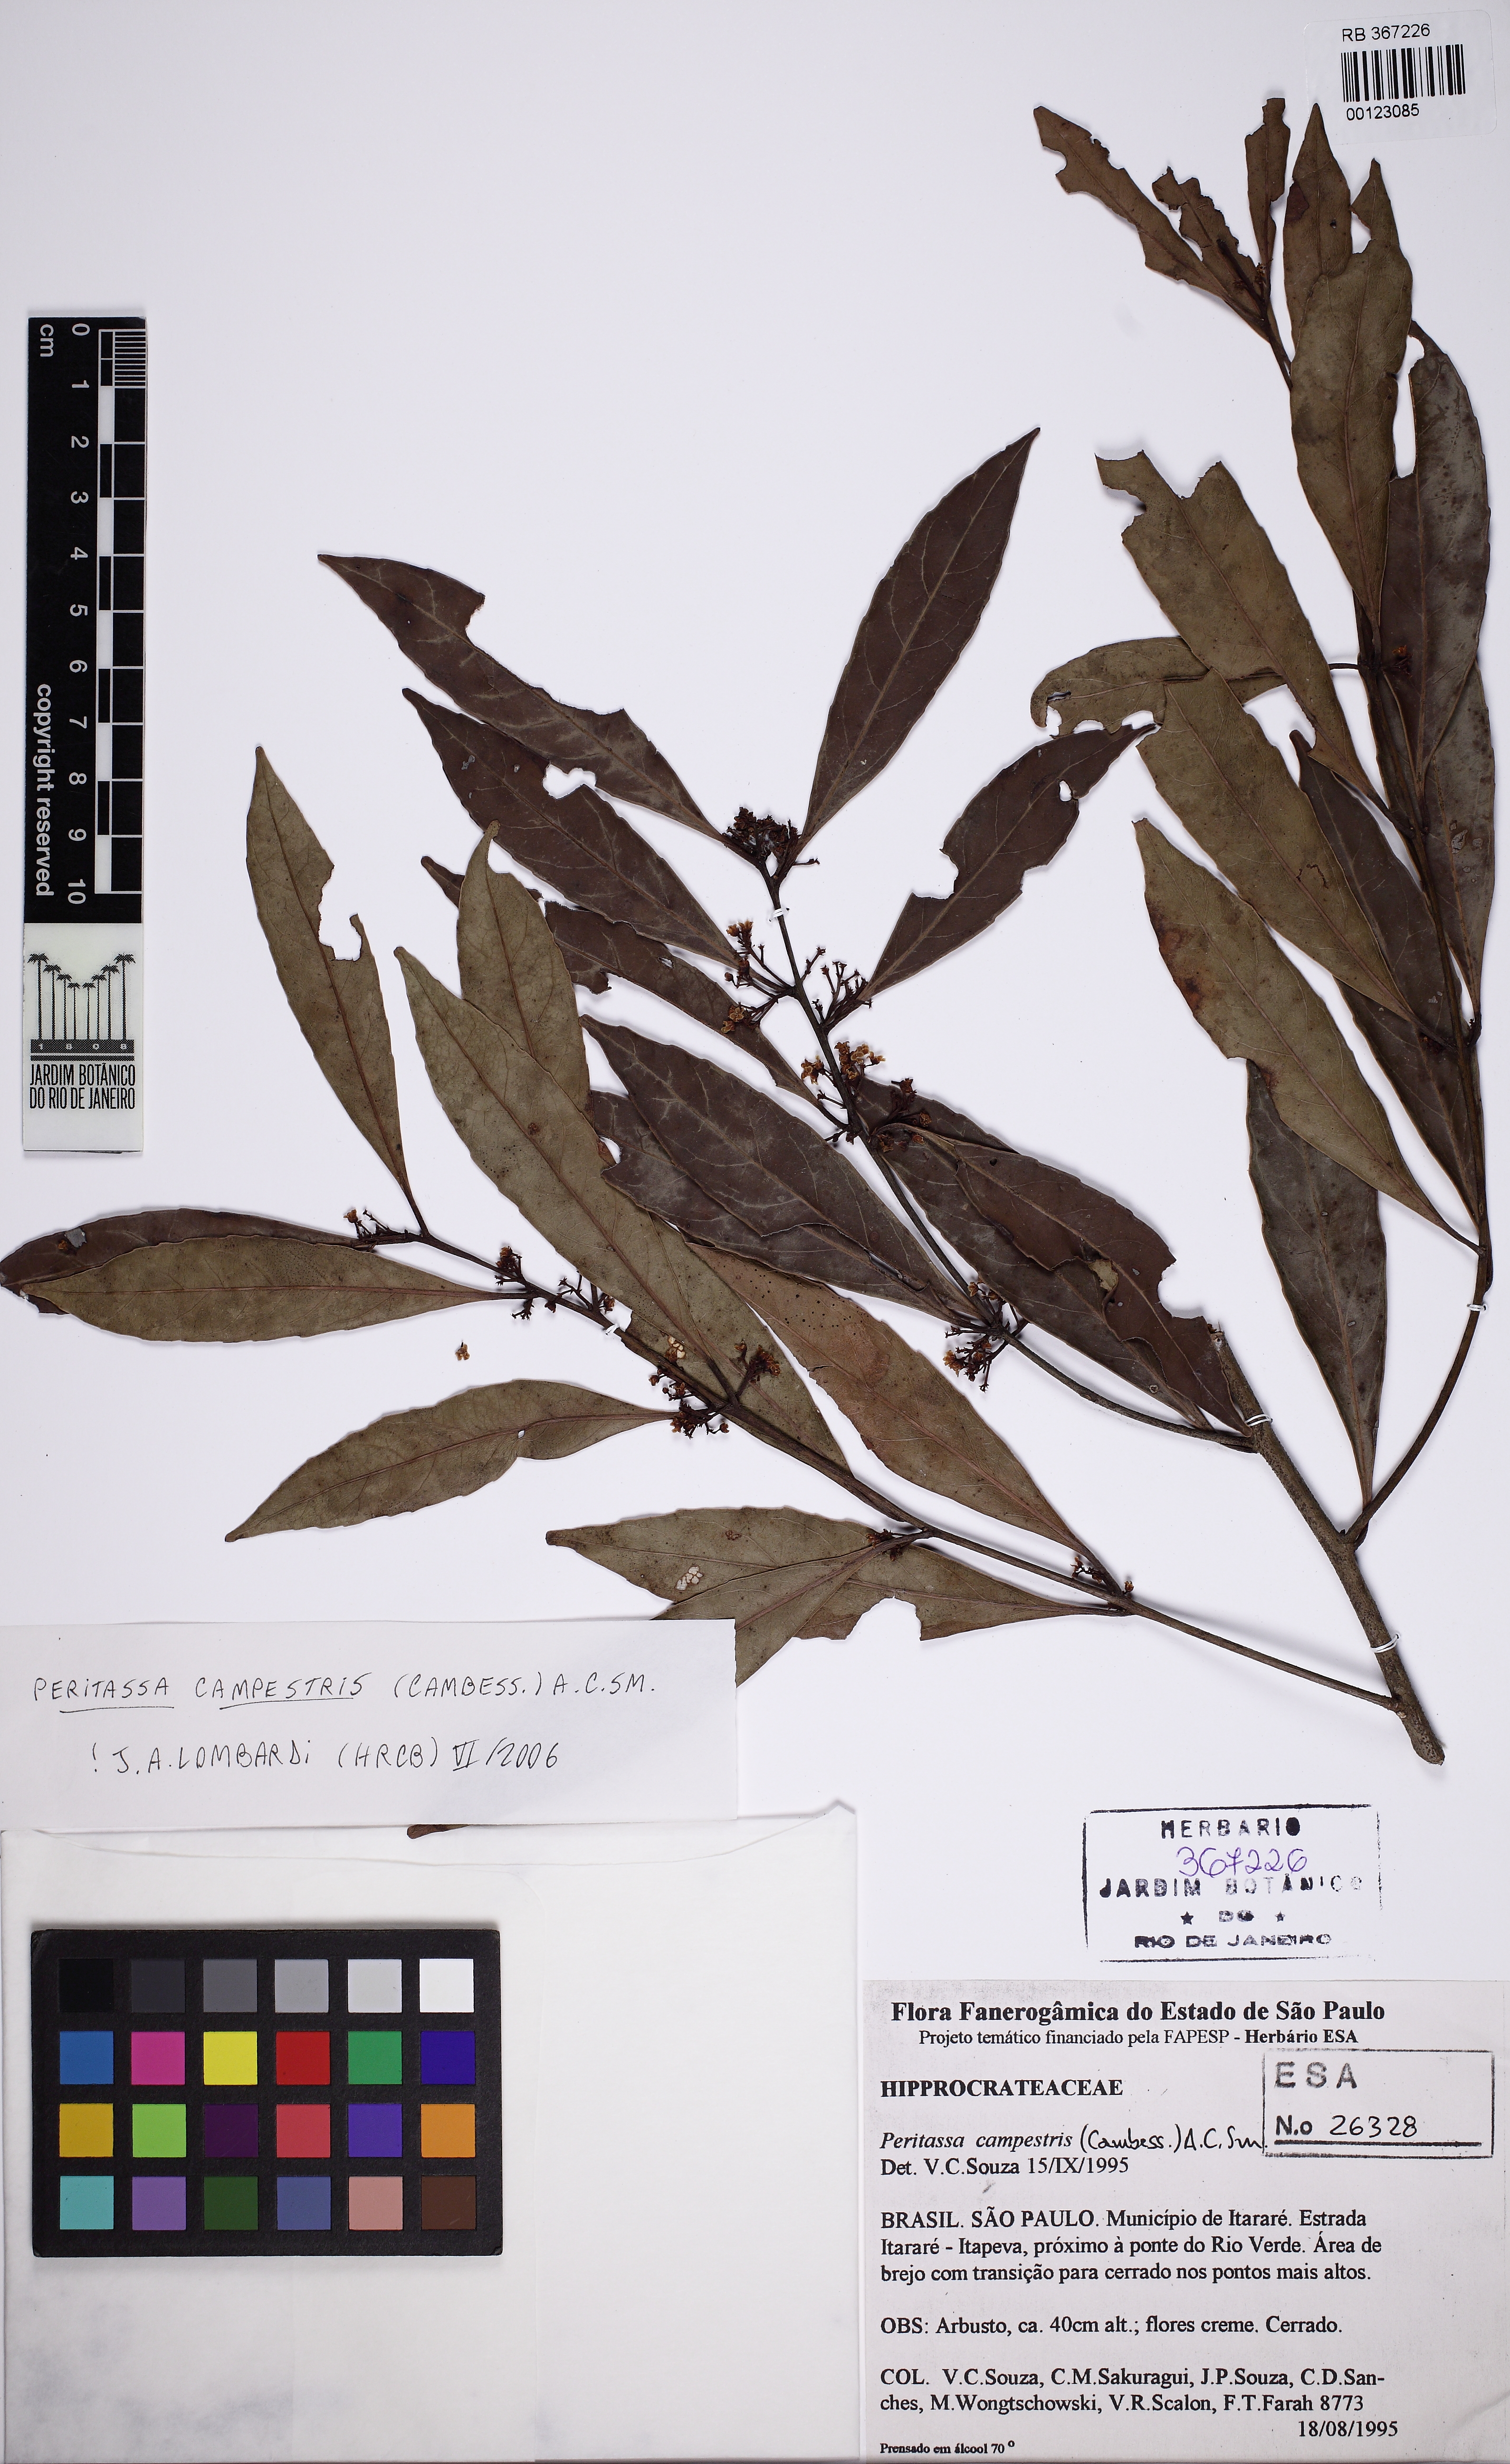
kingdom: Plantae
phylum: Tracheophyta
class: Magnoliopsida
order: Celastrales
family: Celastraceae
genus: Peritassa
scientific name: Peritassa campestris
